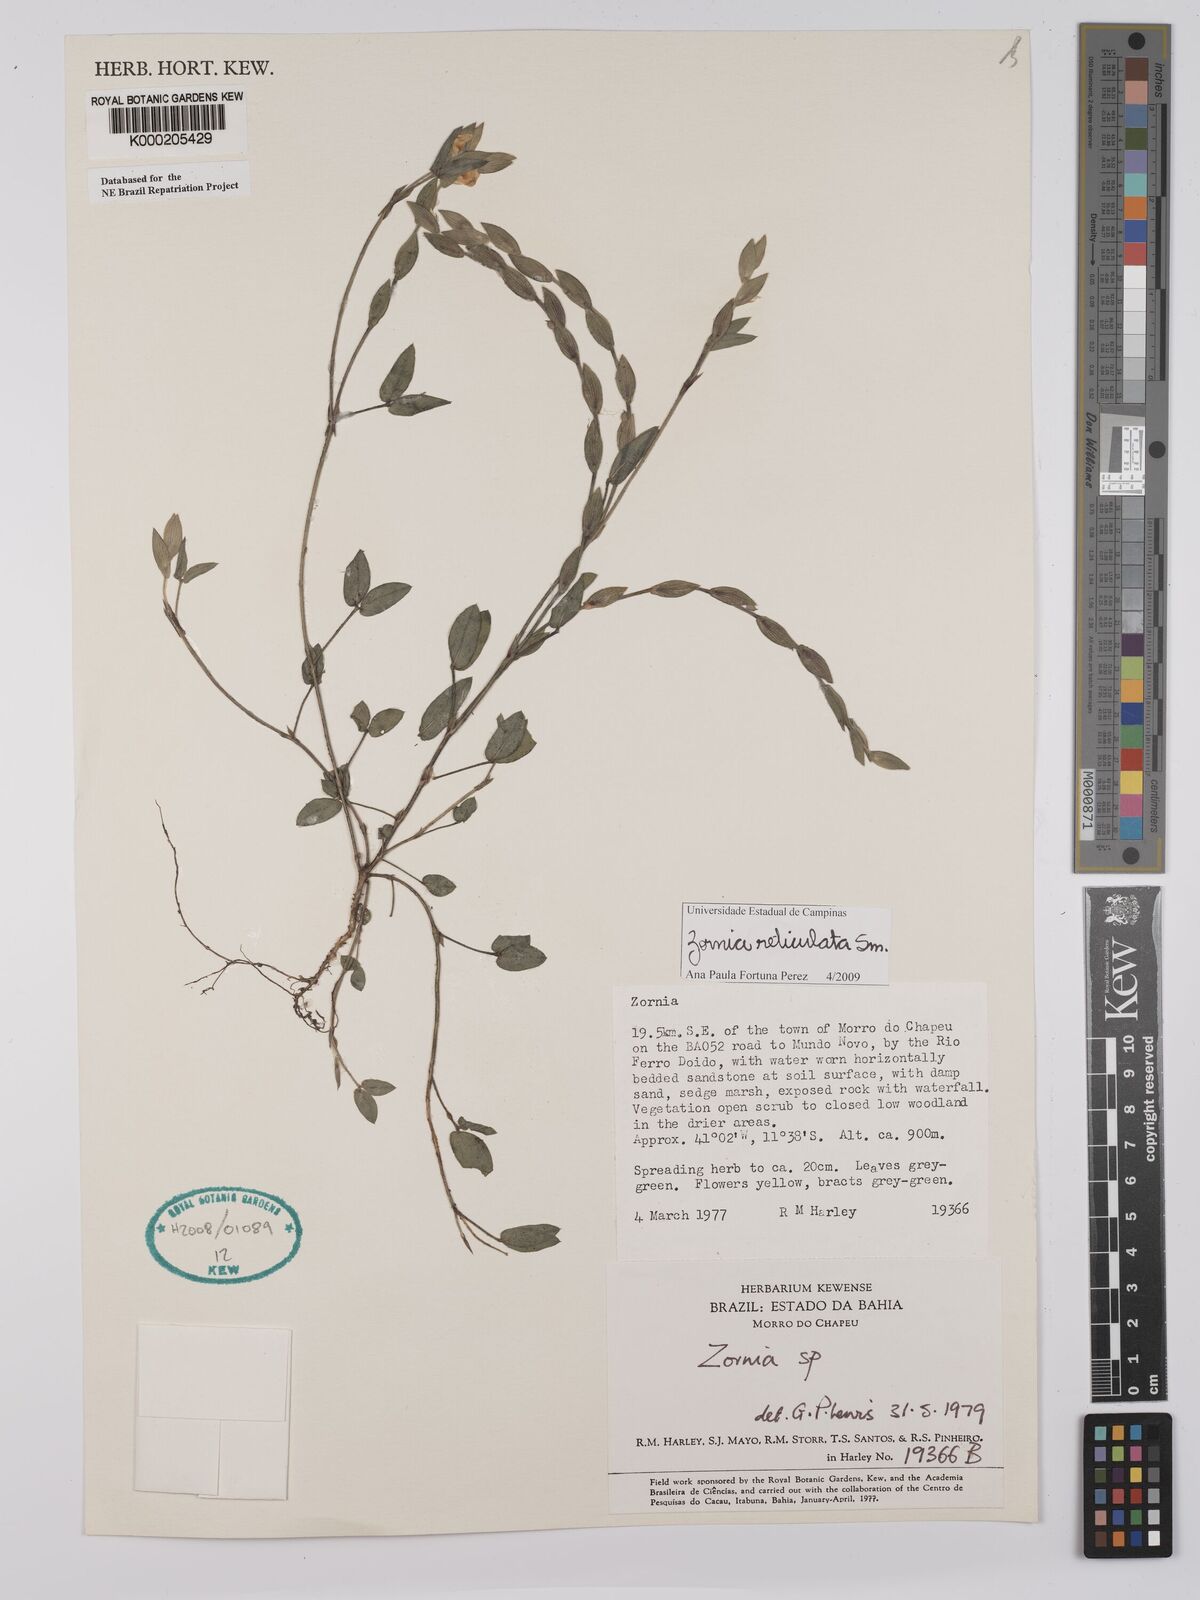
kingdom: Plantae
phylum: Tracheophyta
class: Magnoliopsida
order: Fabales
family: Fabaceae
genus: Zornia
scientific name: Zornia
